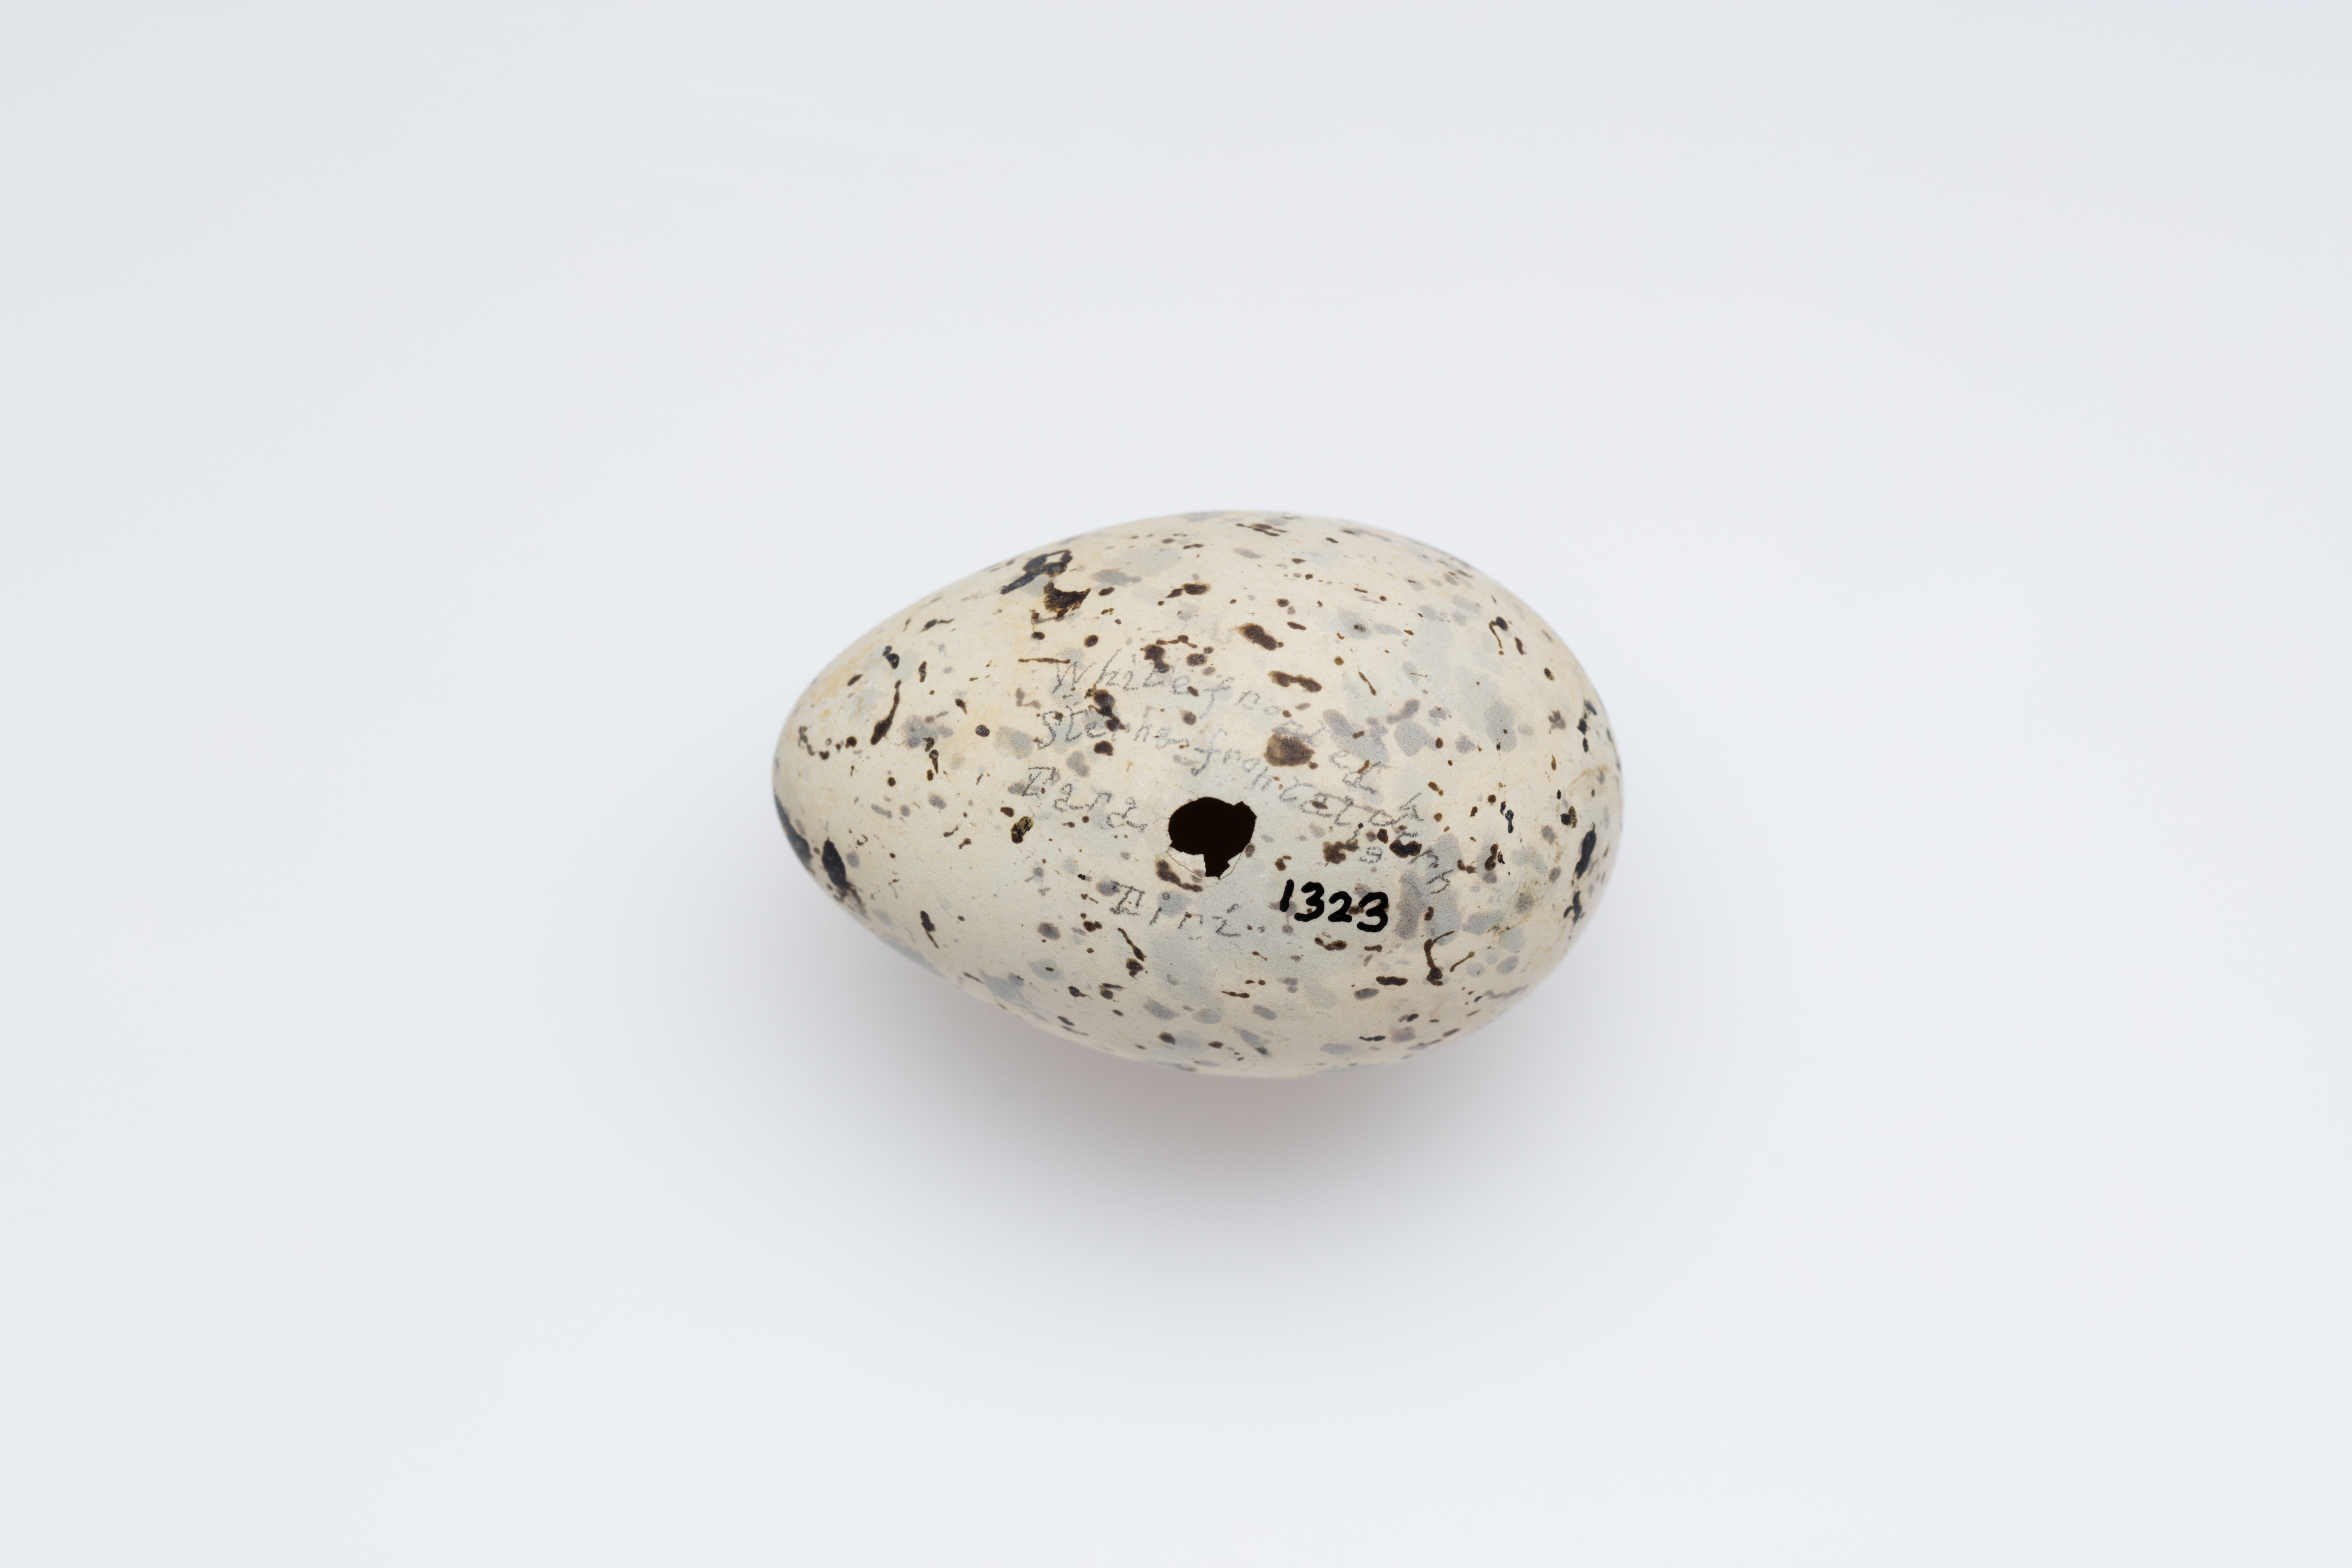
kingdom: Animalia
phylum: Chordata
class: Aves
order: Charadriiformes
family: Laridae
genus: Sterna
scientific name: Sterna striata
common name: White-fronted tern
